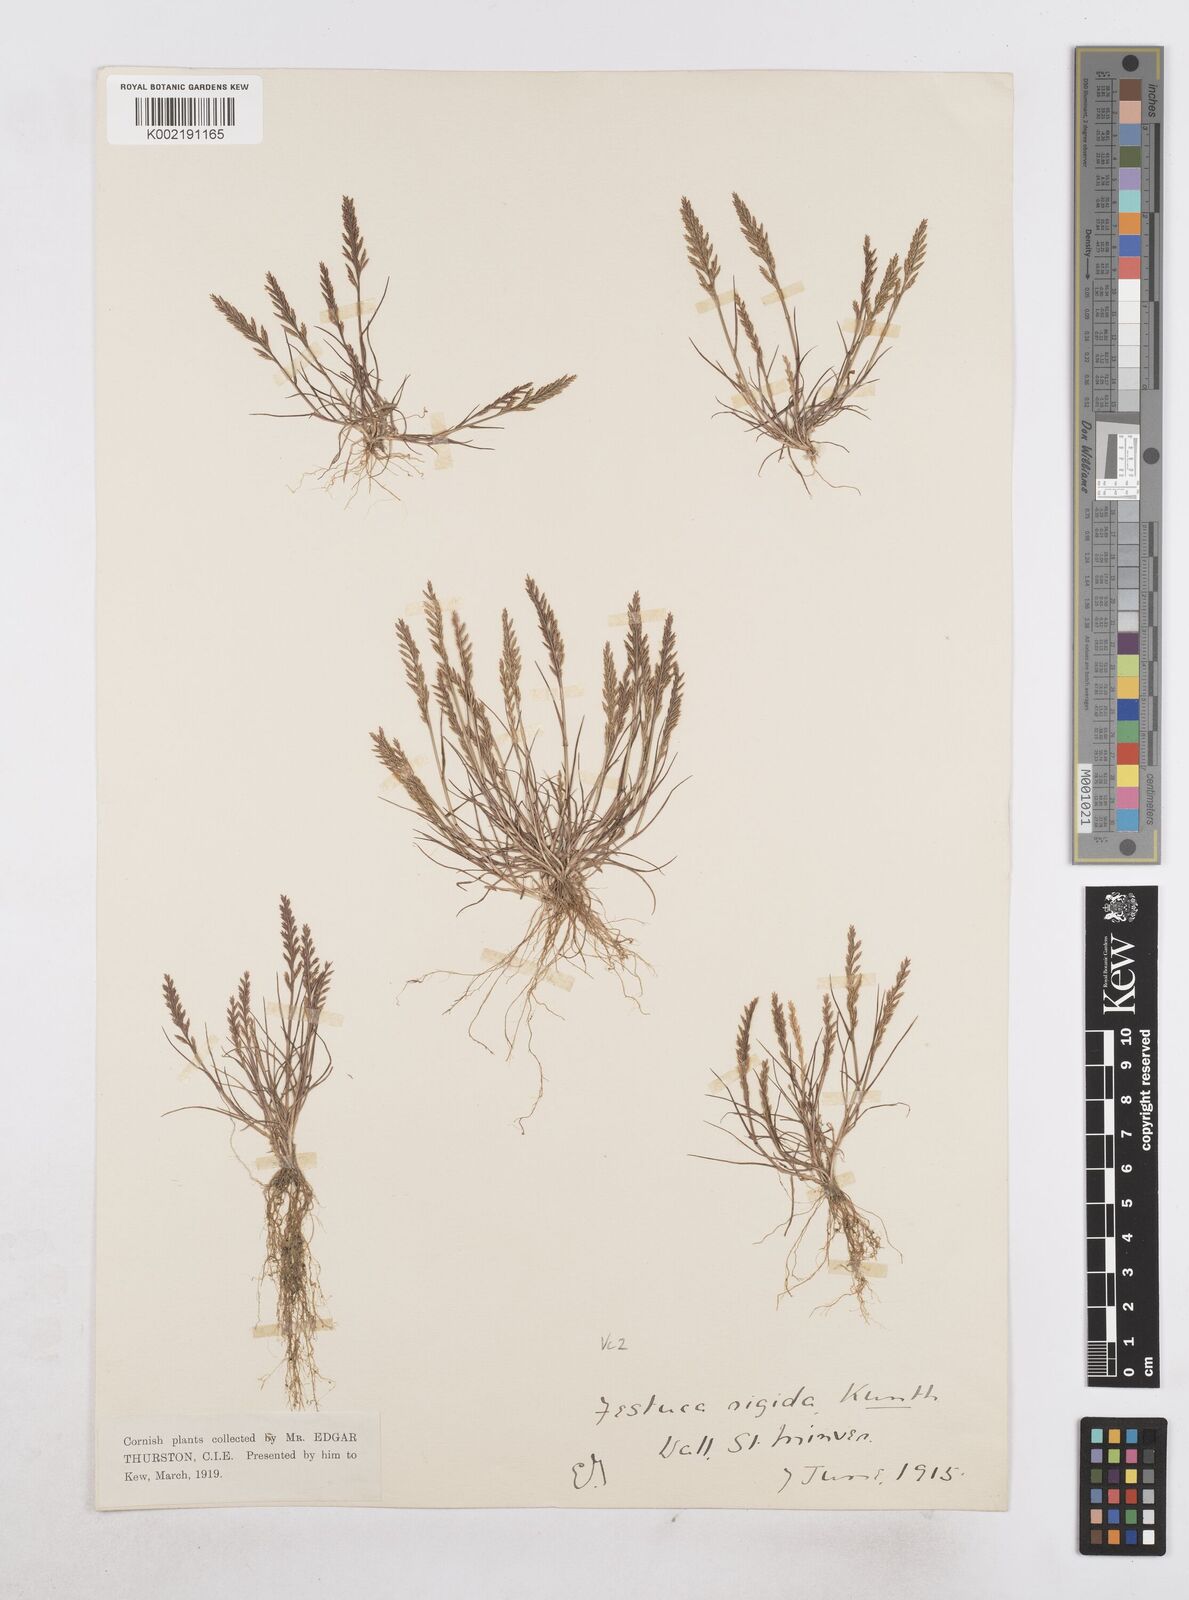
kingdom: Plantae
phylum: Tracheophyta
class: Liliopsida
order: Poales
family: Poaceae
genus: Catapodium
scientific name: Catapodium rigidum
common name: Fern-grass
